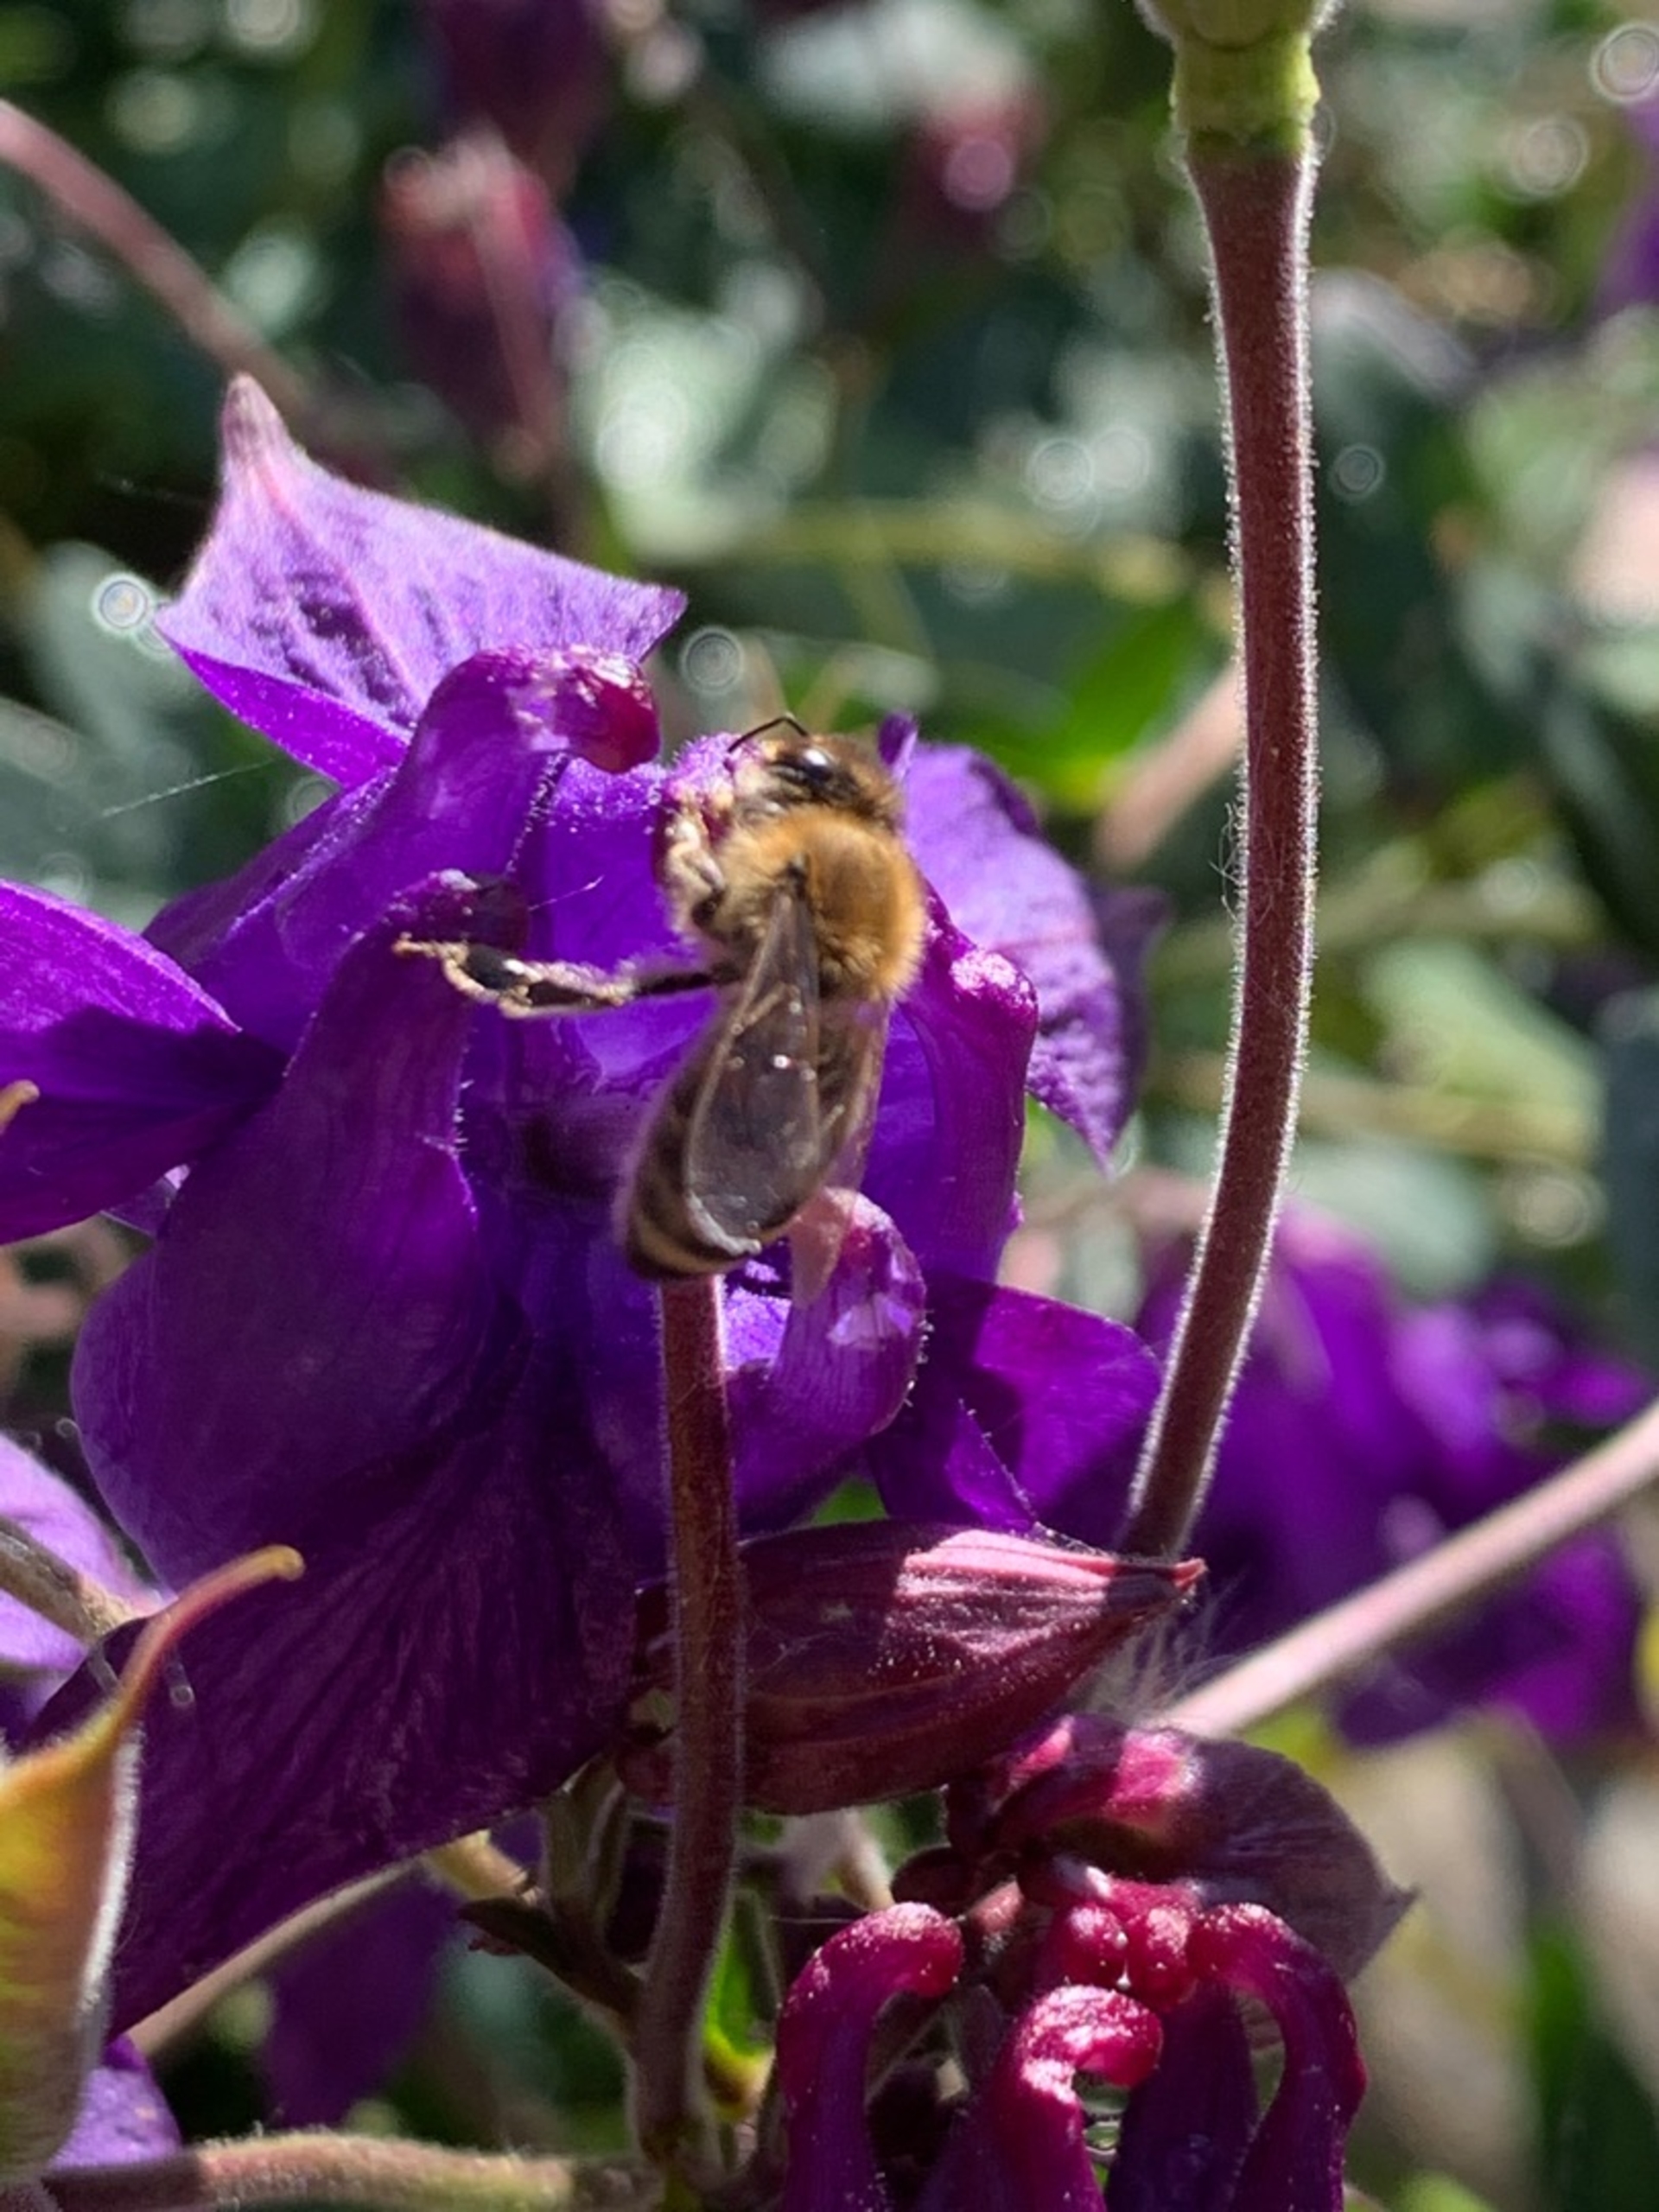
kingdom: Animalia
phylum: Arthropoda
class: Insecta
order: Hymenoptera
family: Apidae
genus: Apis
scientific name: Apis mellifera
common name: Honningbi
